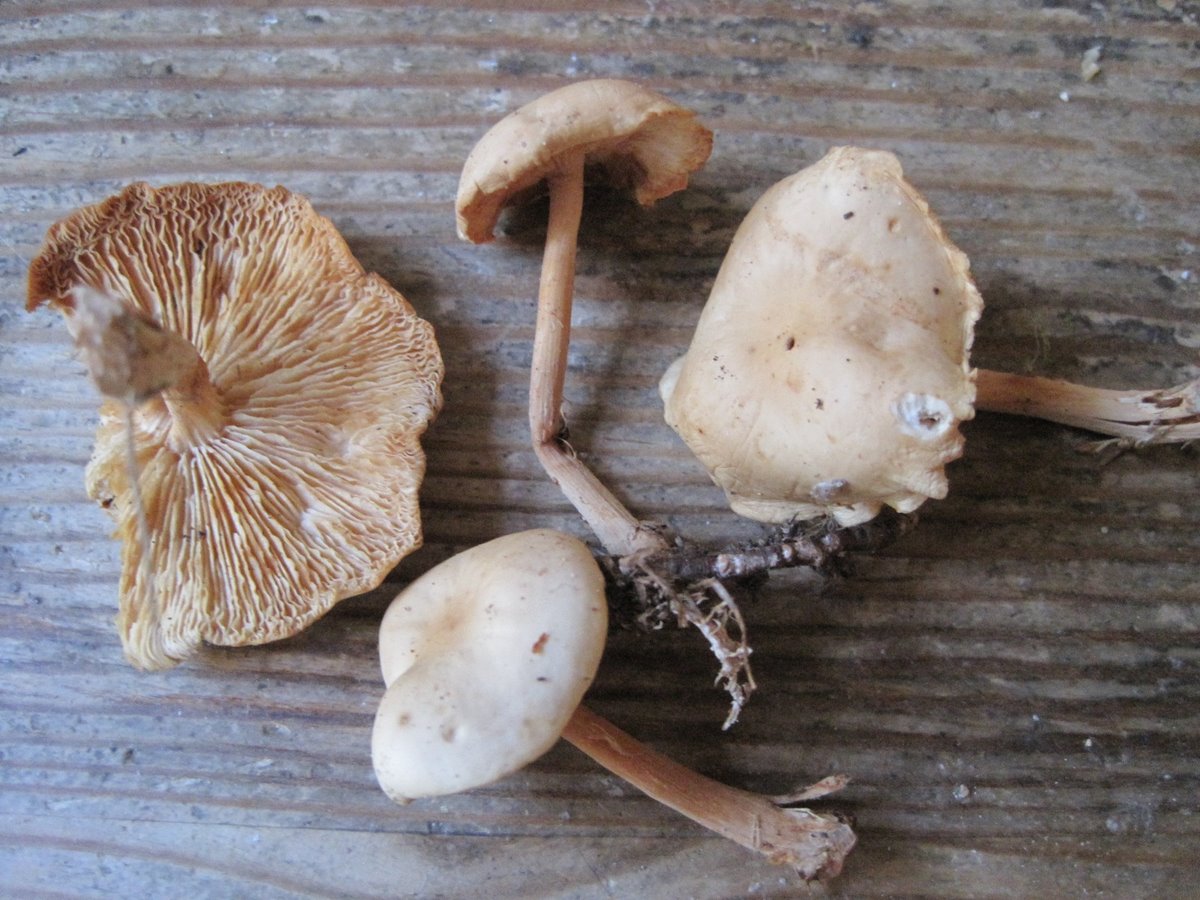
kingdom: Fungi
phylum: Basidiomycota
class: Agaricomycetes
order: Agaricales
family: Omphalotaceae
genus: Gymnopus
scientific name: Gymnopus aquosus
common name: bleg fladhat
